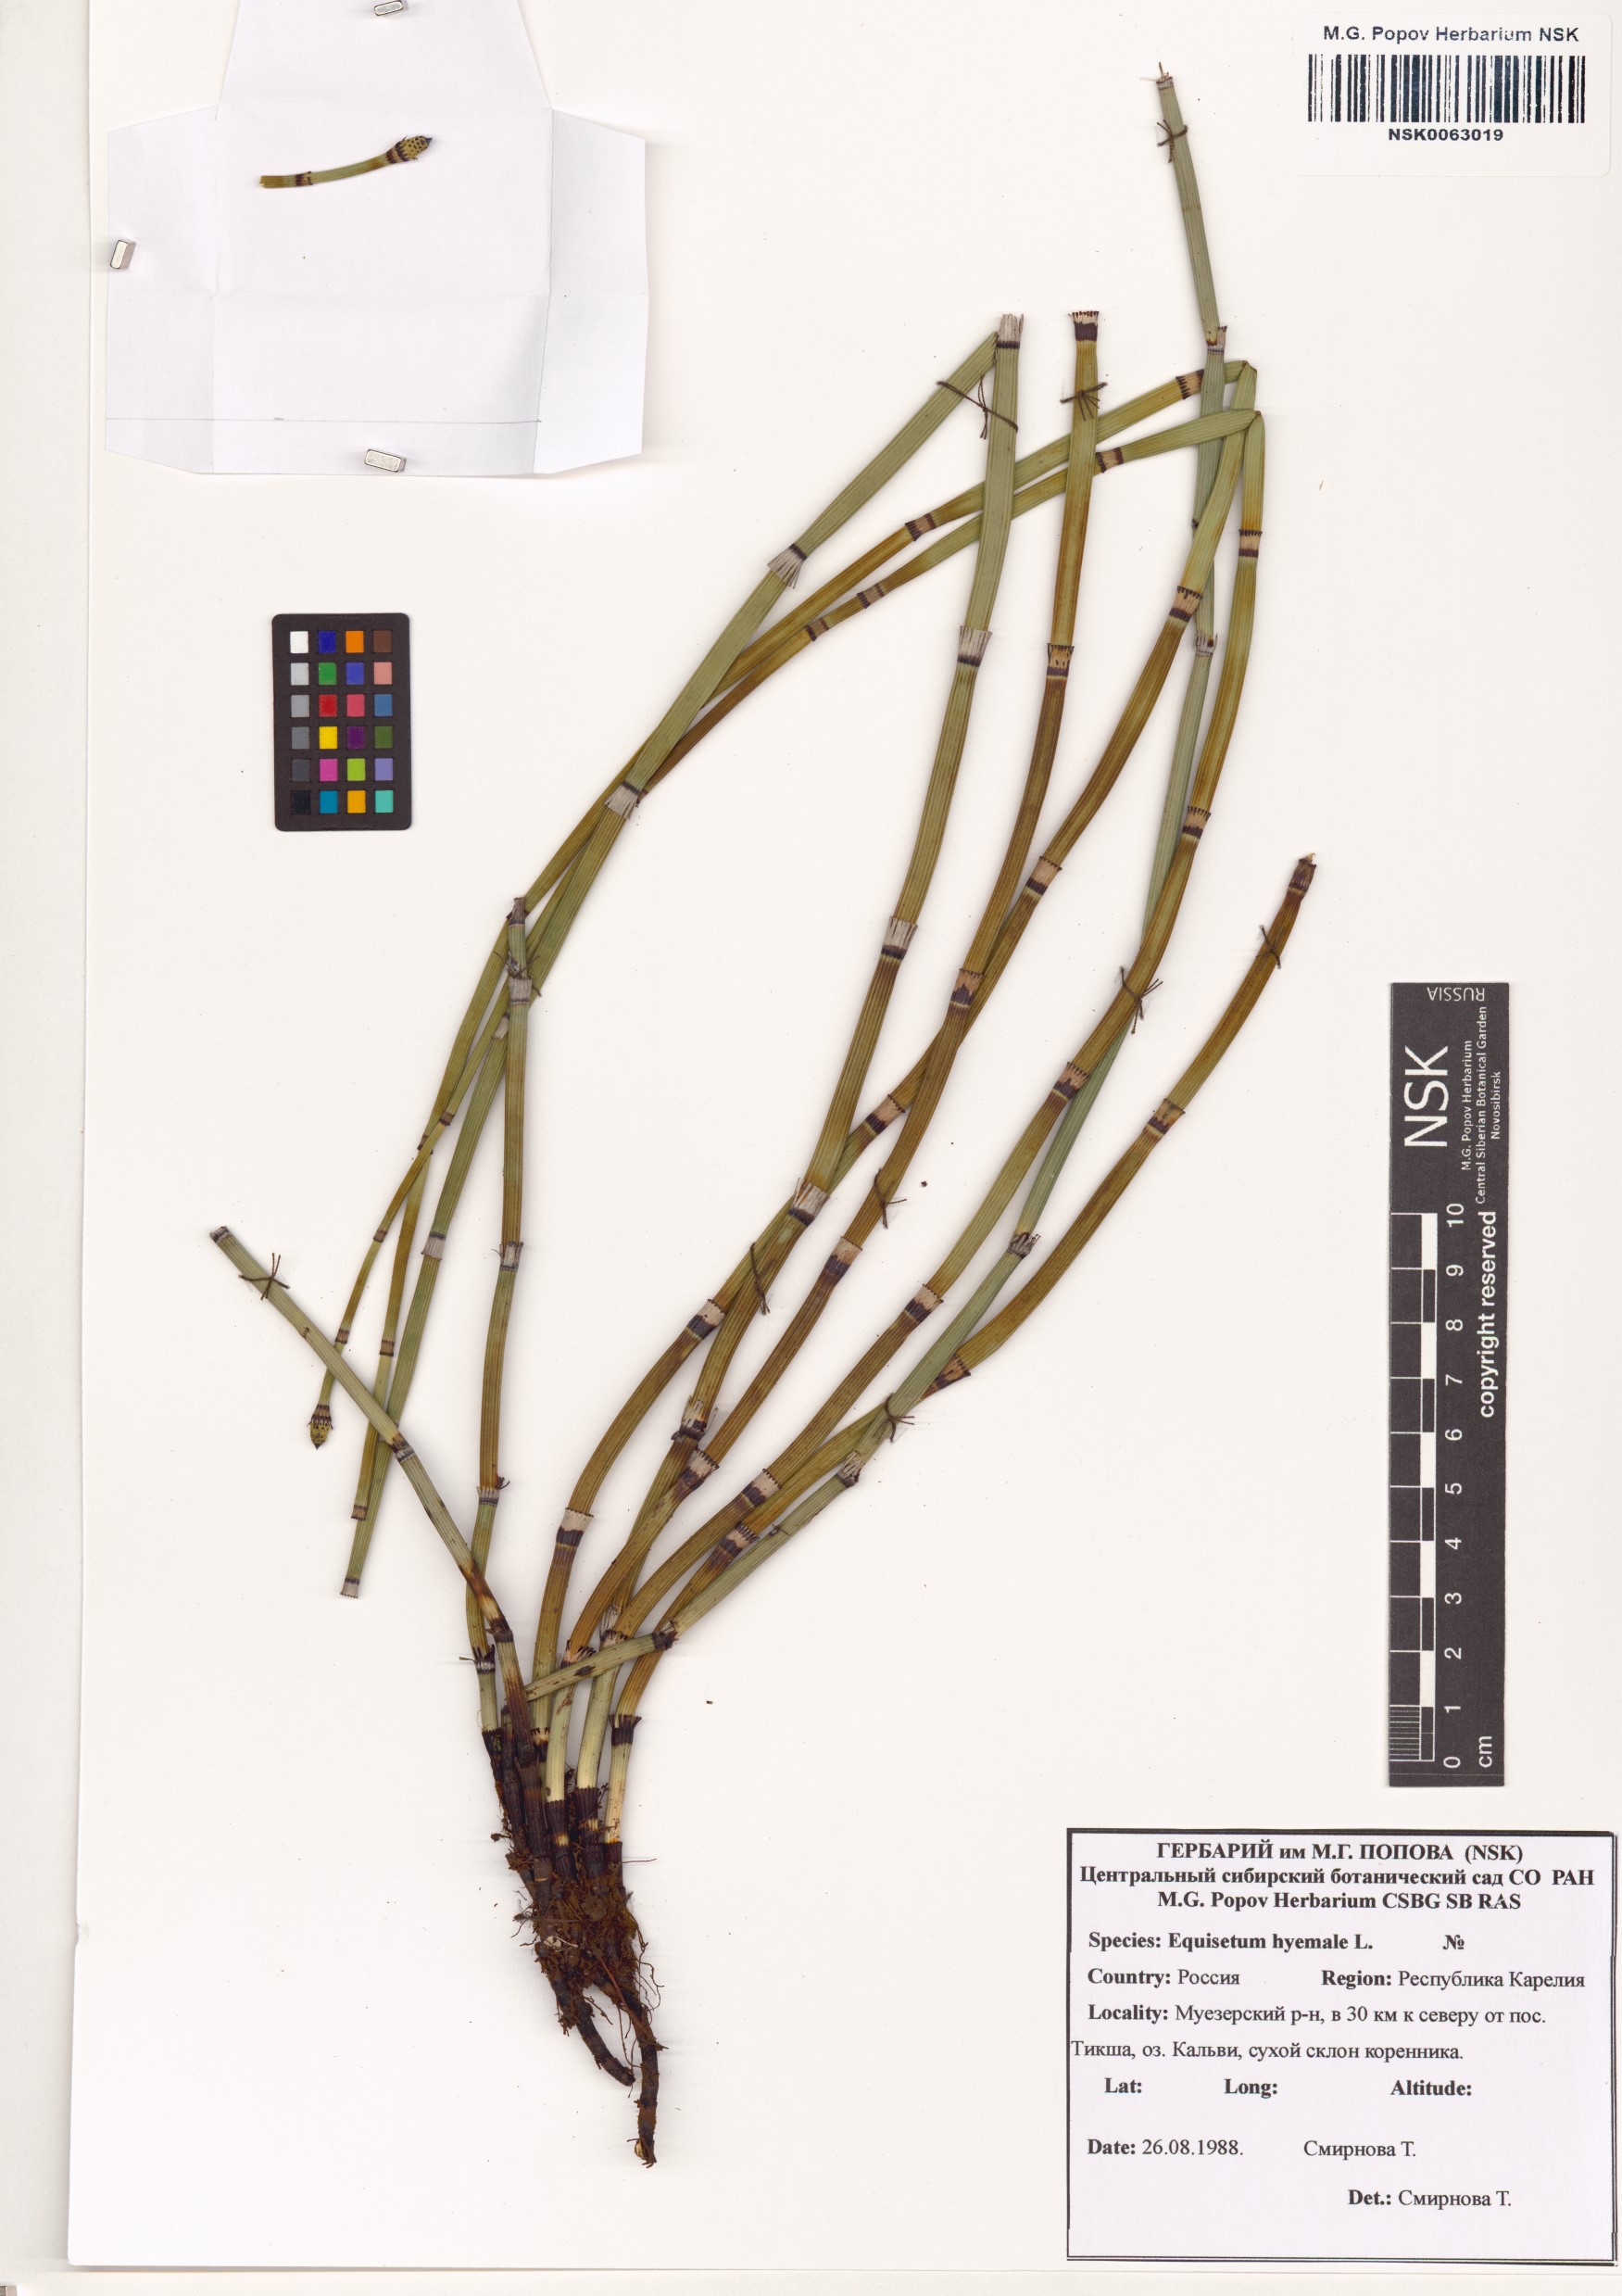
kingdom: Plantae
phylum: Tracheophyta
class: Polypodiopsida
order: Equisetales
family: Equisetaceae
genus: Equisetum
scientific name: Equisetum hyemale
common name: Rough horsetail
